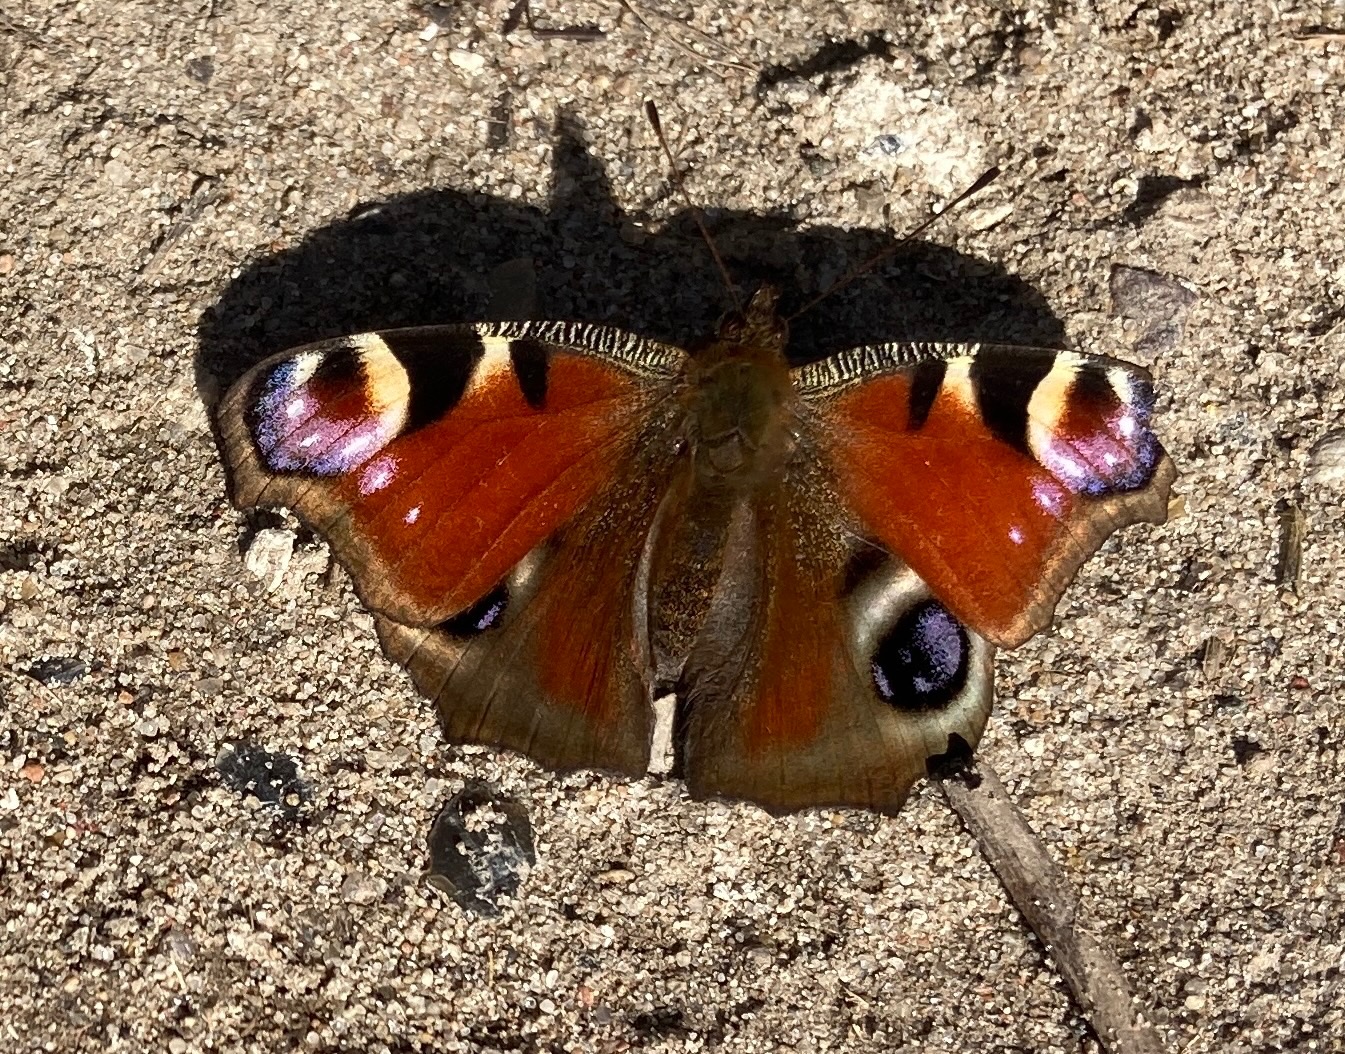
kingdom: Animalia
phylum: Arthropoda
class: Insecta
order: Lepidoptera
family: Nymphalidae
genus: Aglais
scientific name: Aglais io
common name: Dagpåfugleøje
